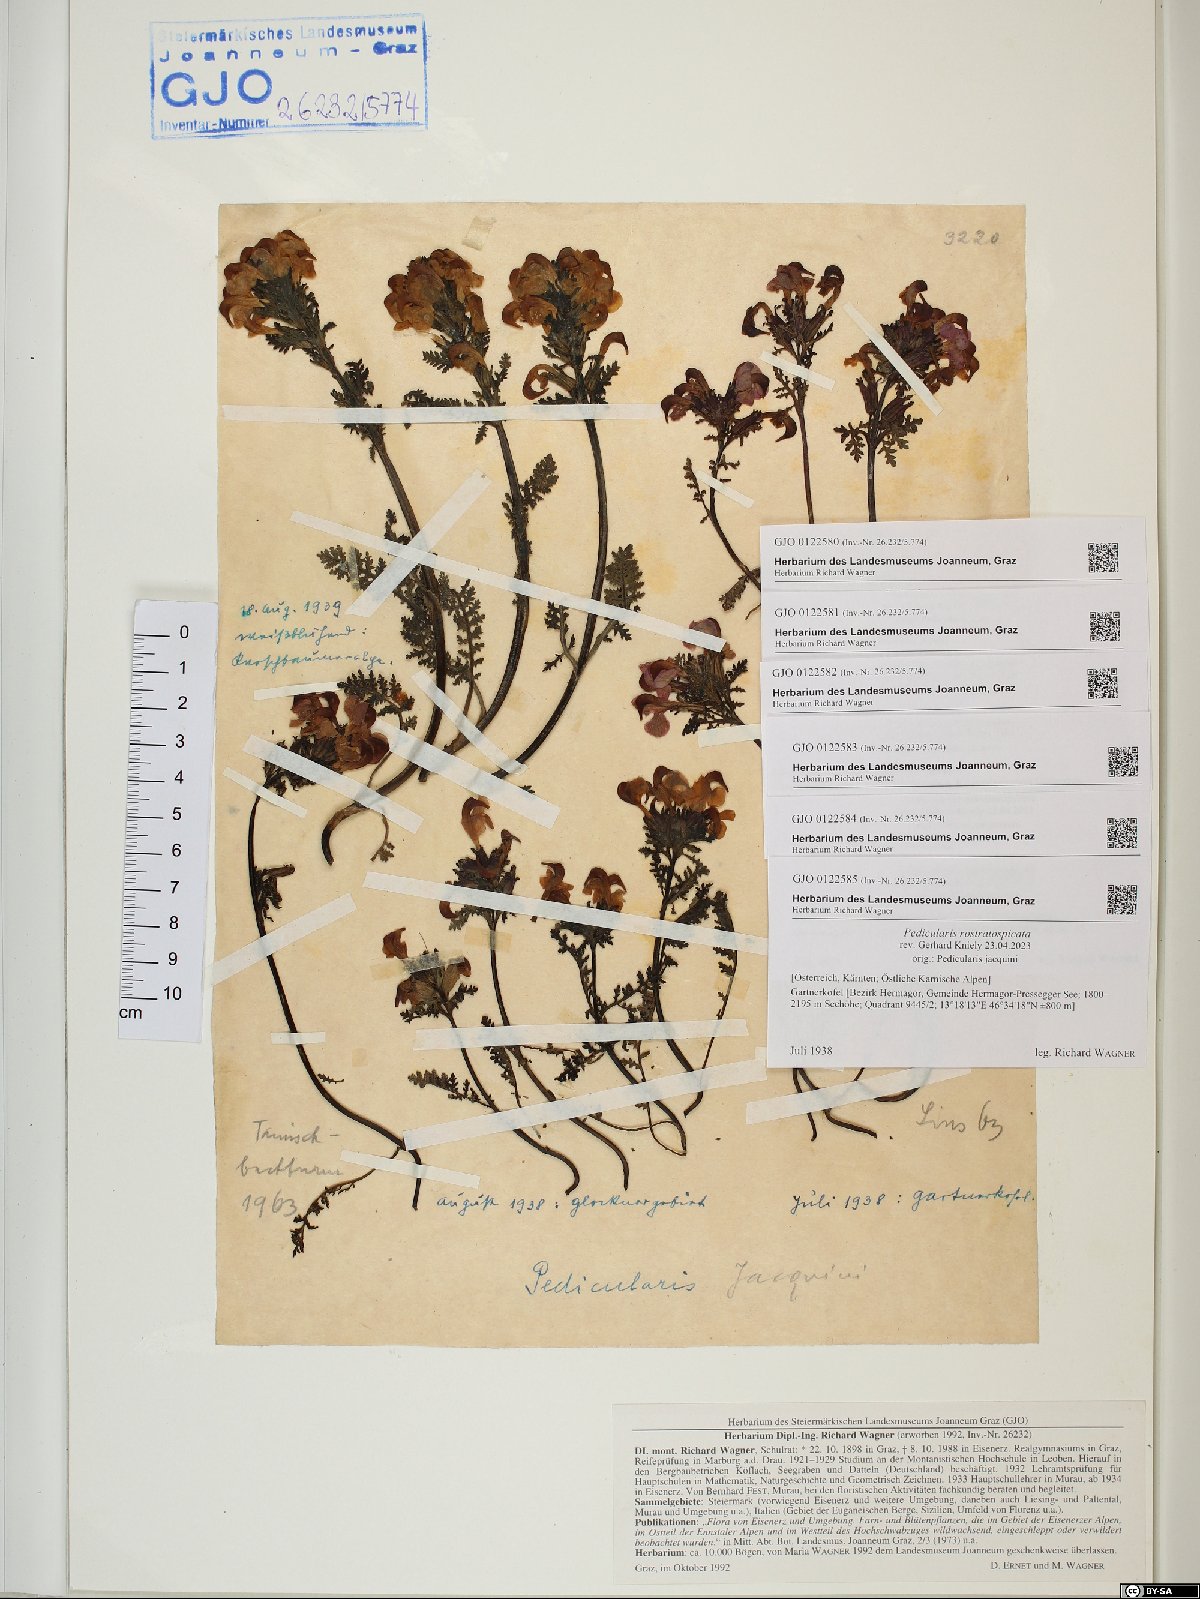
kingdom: Plantae
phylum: Tracheophyta
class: Magnoliopsida
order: Lamiales
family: Orobanchaceae
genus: Pedicularis
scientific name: Pedicularis rostratocapitata
